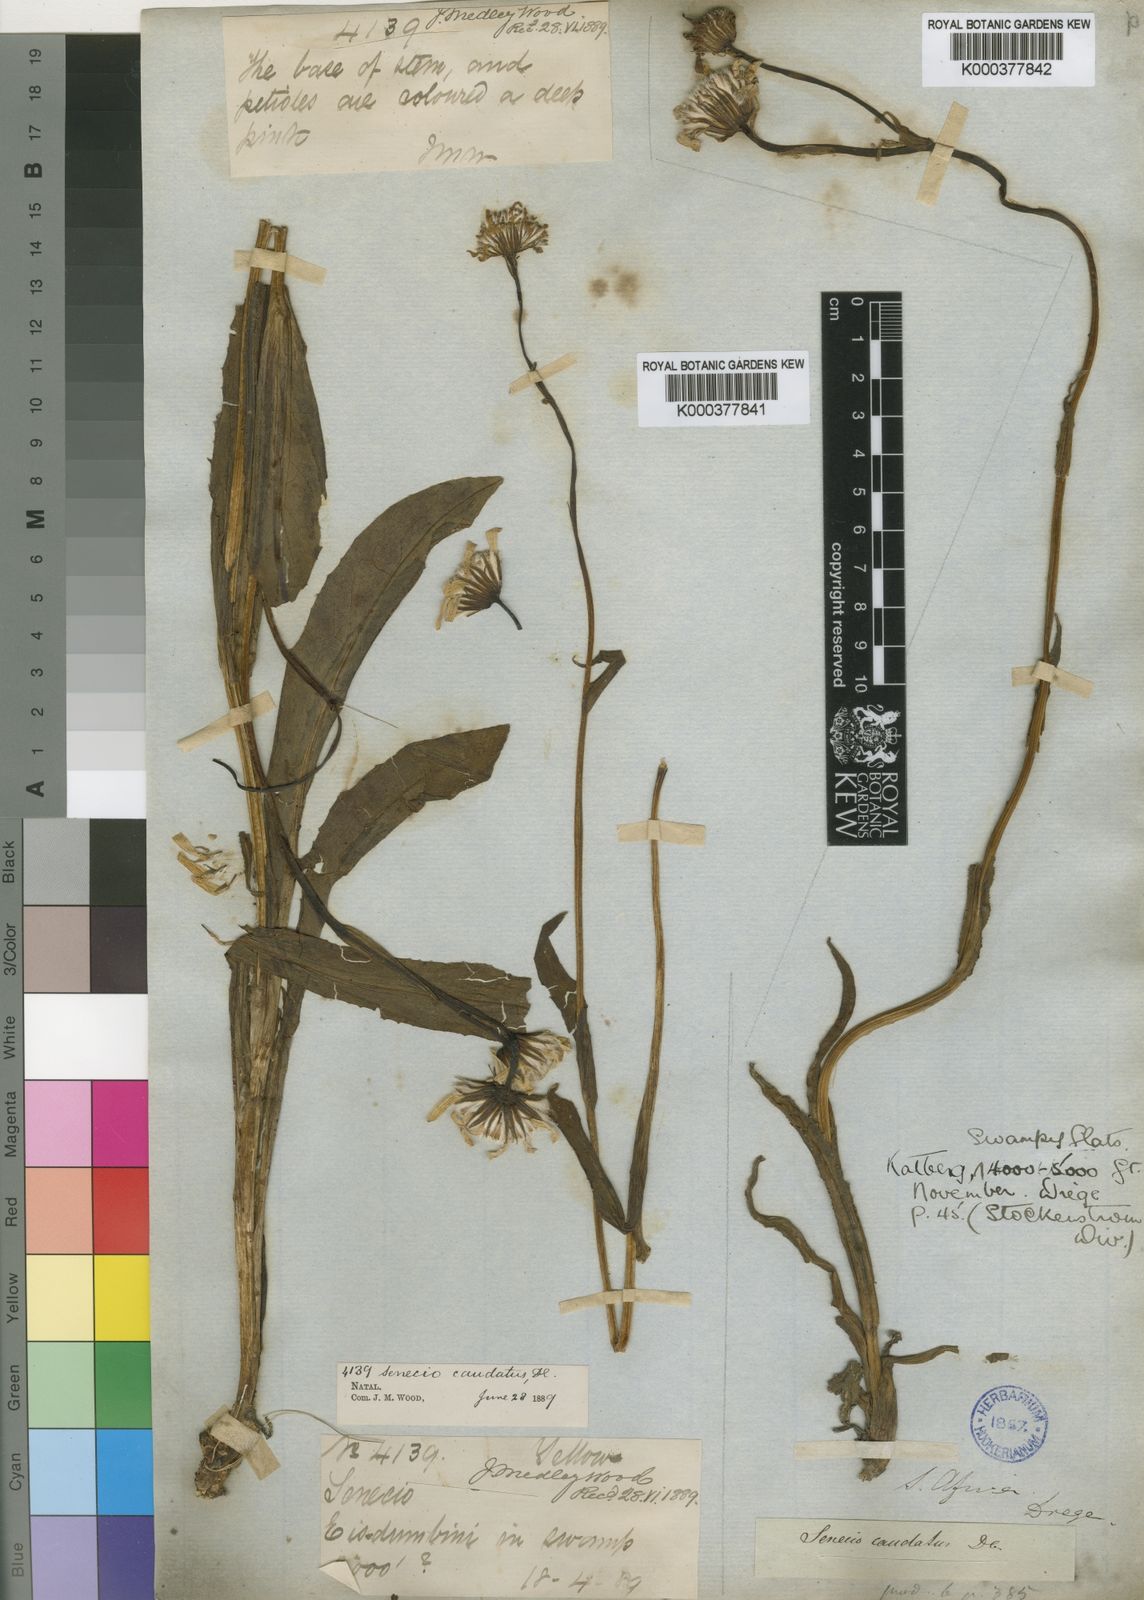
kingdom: Plantae
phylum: Tracheophyta
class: Magnoliopsida
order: Asterales
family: Asteraceae
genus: Senecio
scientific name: Senecio caudatus
